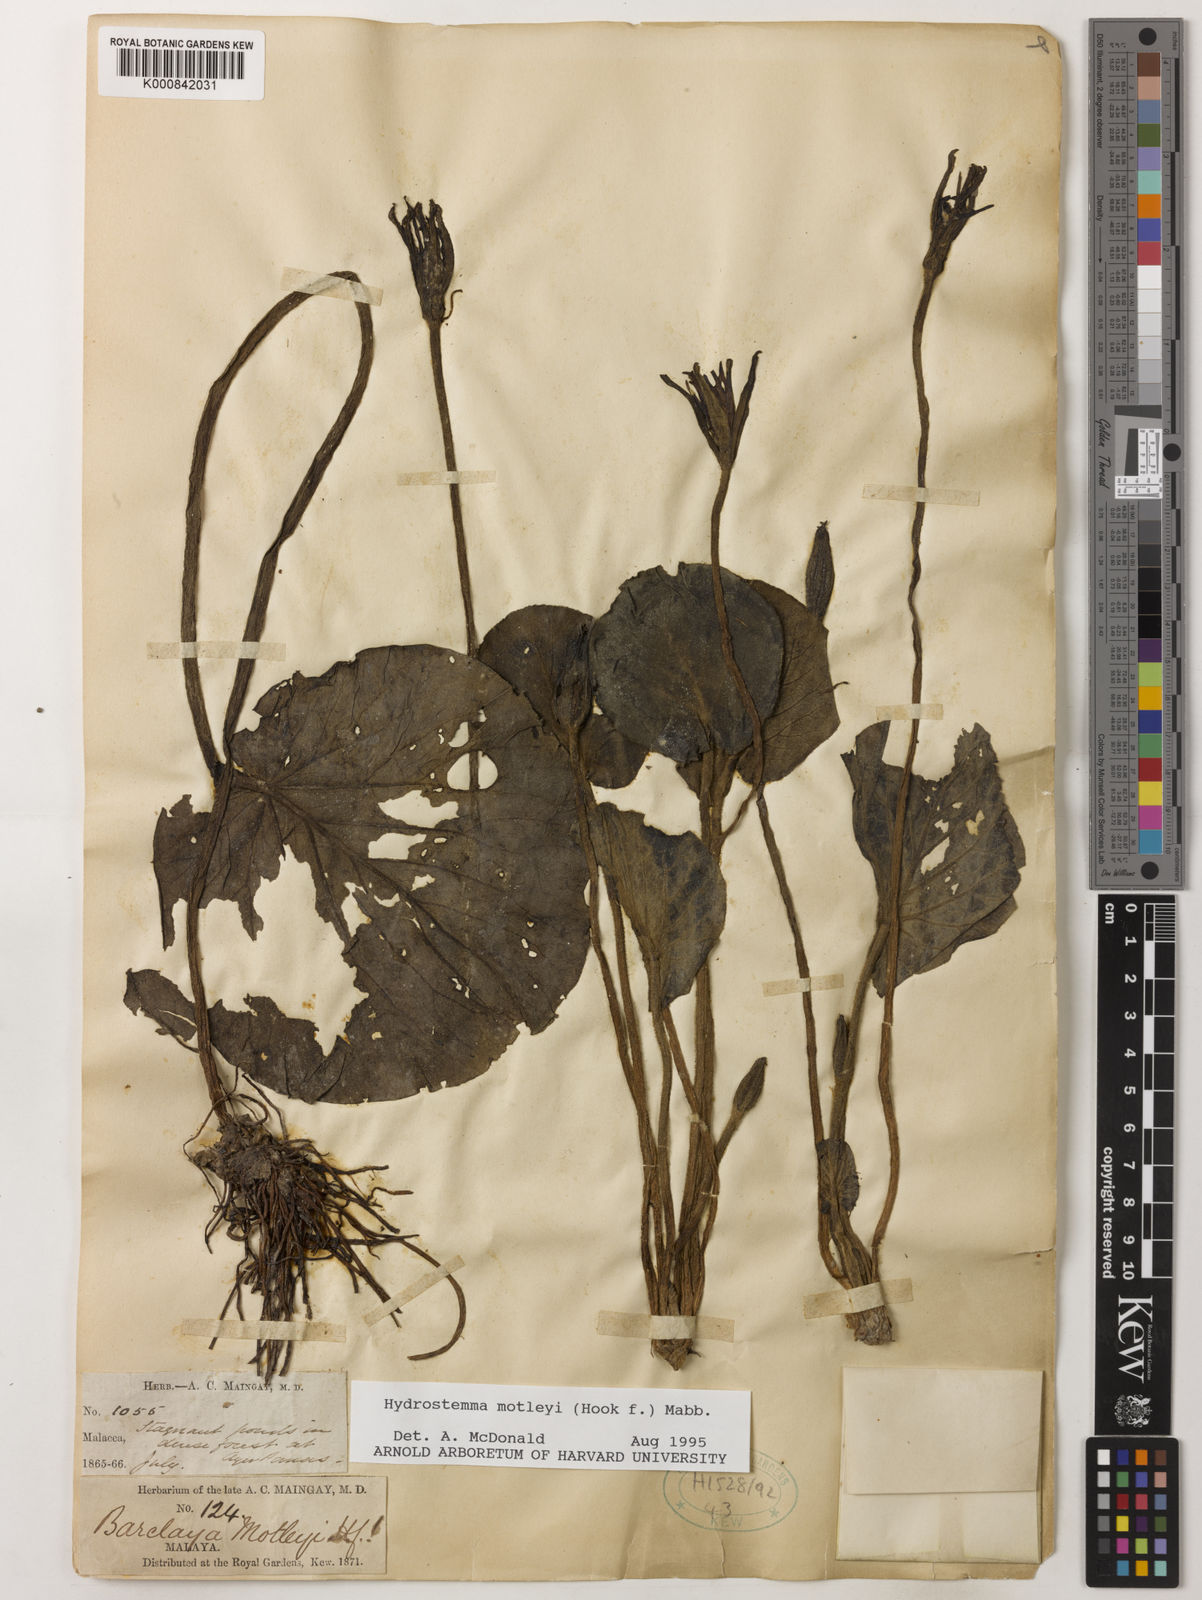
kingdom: Plantae
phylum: Tracheophyta
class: Magnoliopsida
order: Nymphaeales
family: Nymphaeaceae
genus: Barclaya
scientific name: Barclaya motleyi
